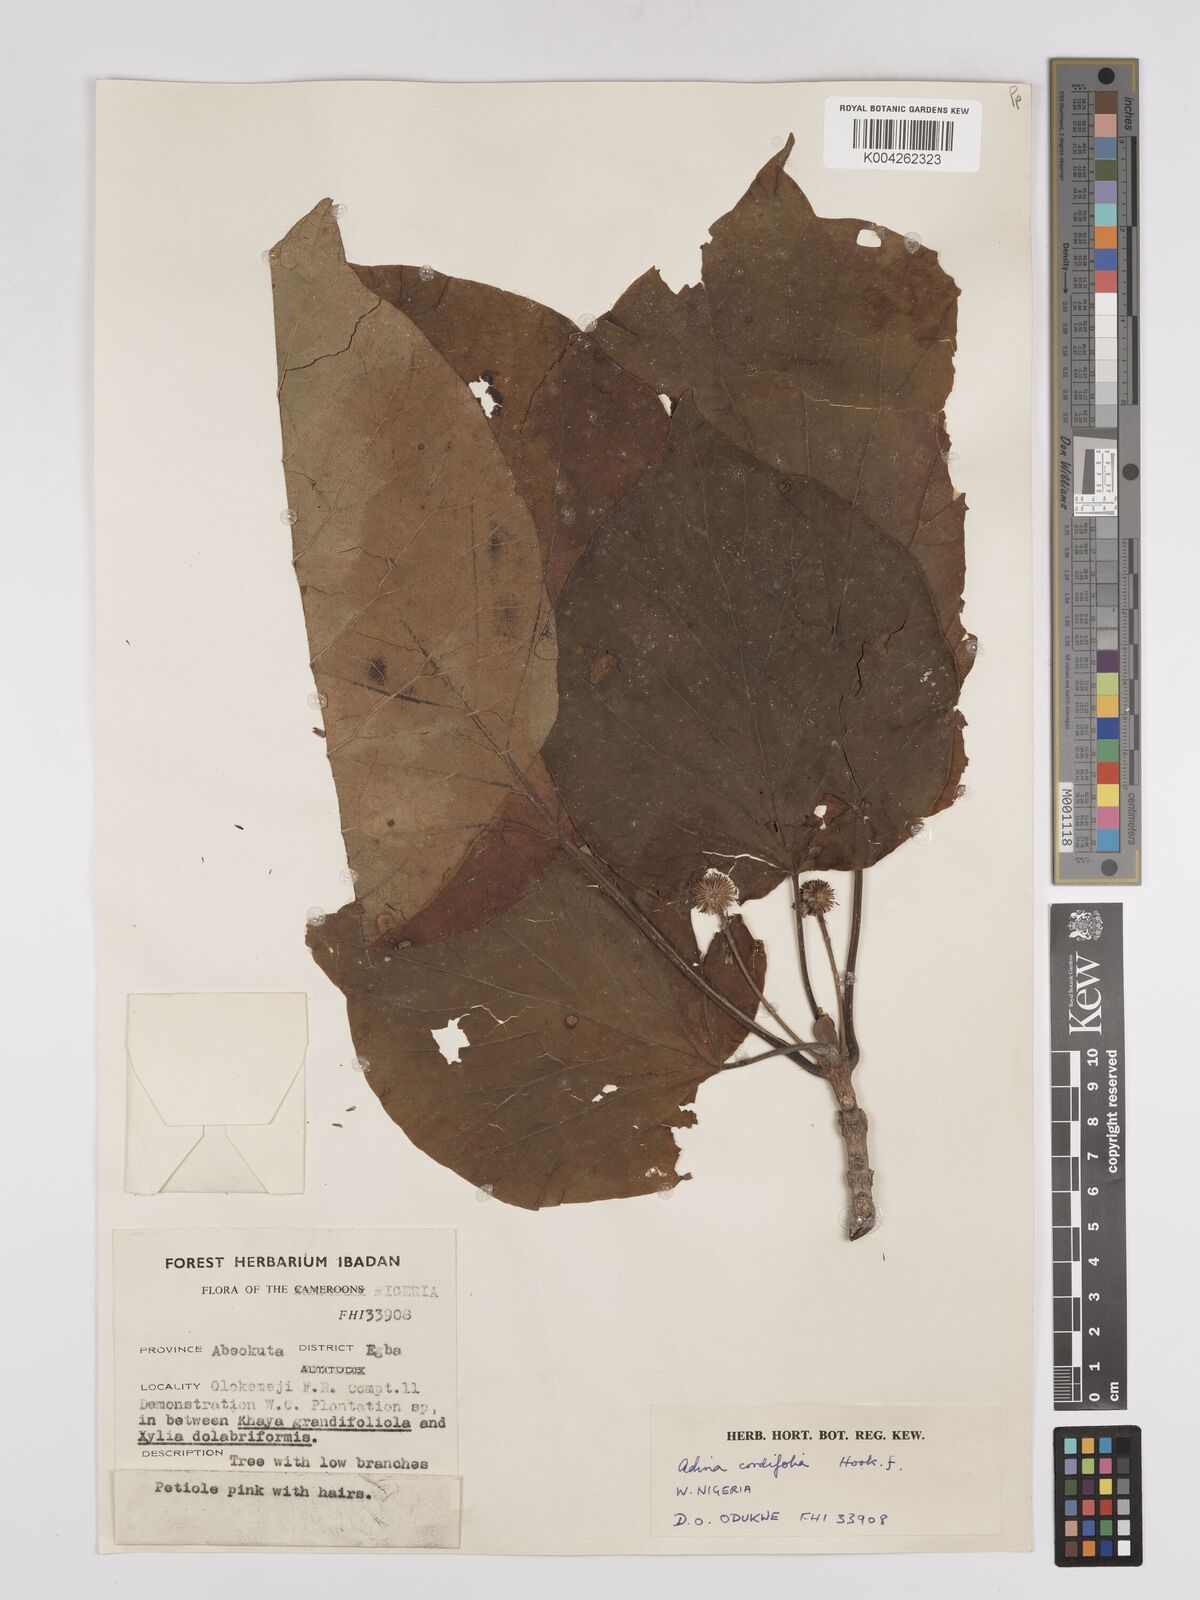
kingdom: Plantae
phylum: Tracheophyta
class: Magnoliopsida
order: Gentianales
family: Rubiaceae
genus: Adina
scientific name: Adina cordifolia
